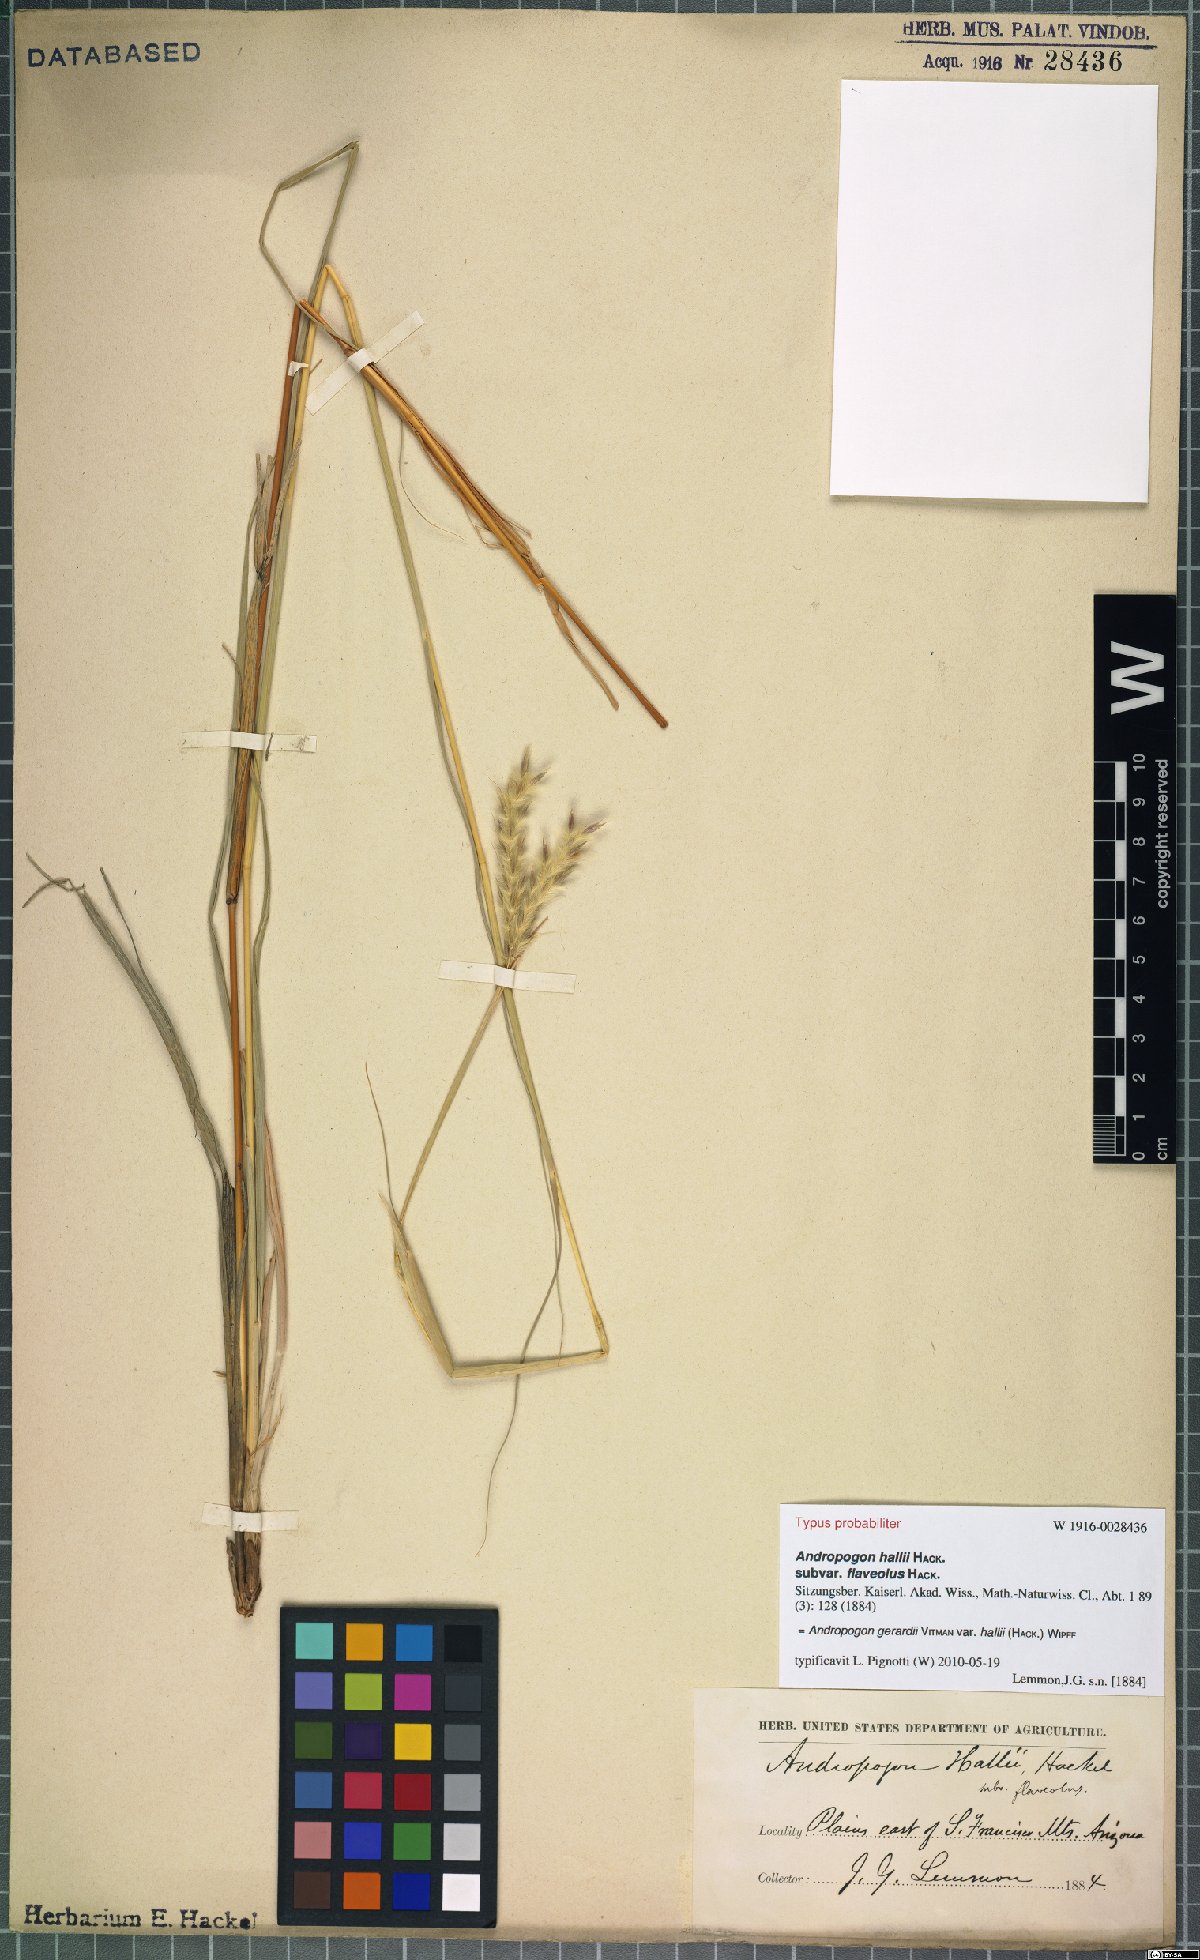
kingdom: Plantae
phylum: Tracheophyta
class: Liliopsida
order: Poales
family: Poaceae
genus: Andropogon
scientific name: Andropogon hallii
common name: Sand bluestem
